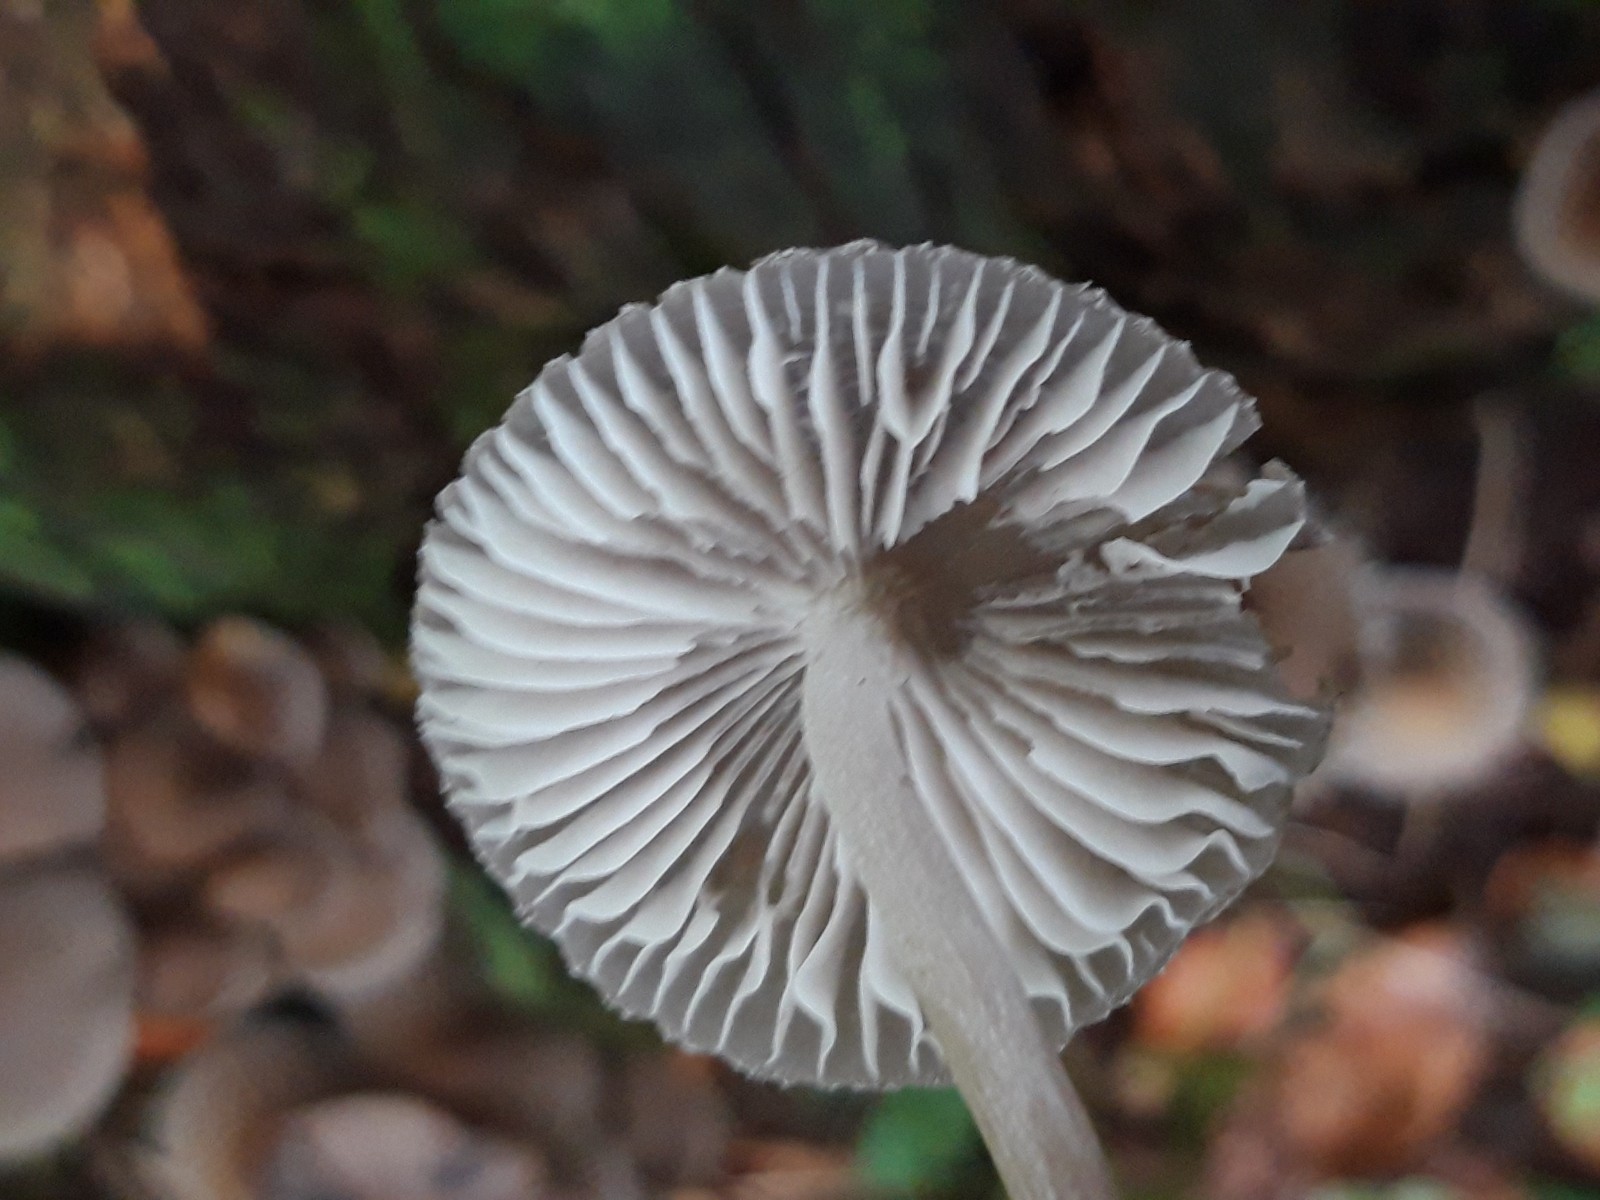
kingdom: Fungi
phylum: Basidiomycota
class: Agaricomycetes
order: Agaricales
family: Mycenaceae
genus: Mycena
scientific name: Mycena inclinata
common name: nikkende huesvamp
